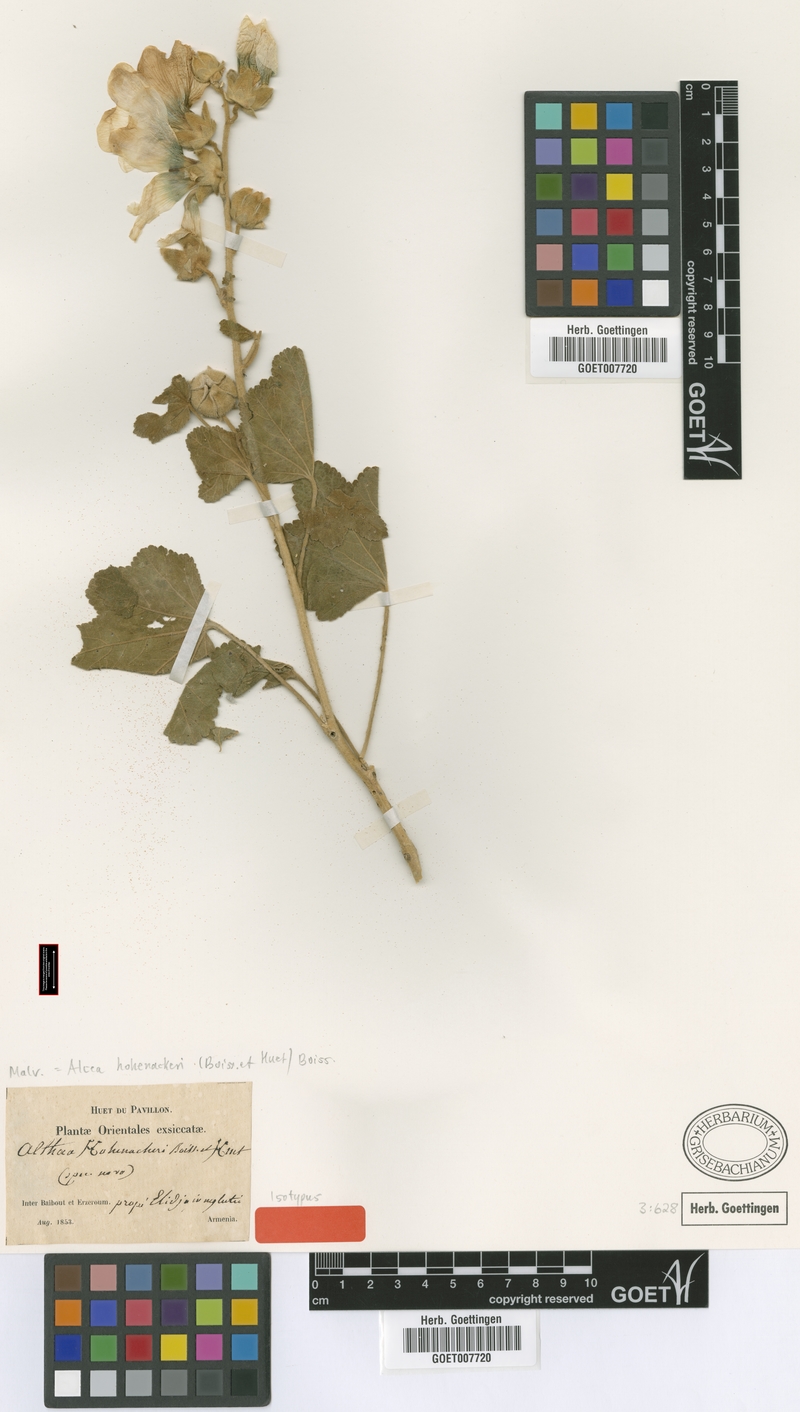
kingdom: Plantae
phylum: Tracheophyta
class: Magnoliopsida
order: Malvales
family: Malvaceae
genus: Alcea
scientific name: Alcea kurdica
